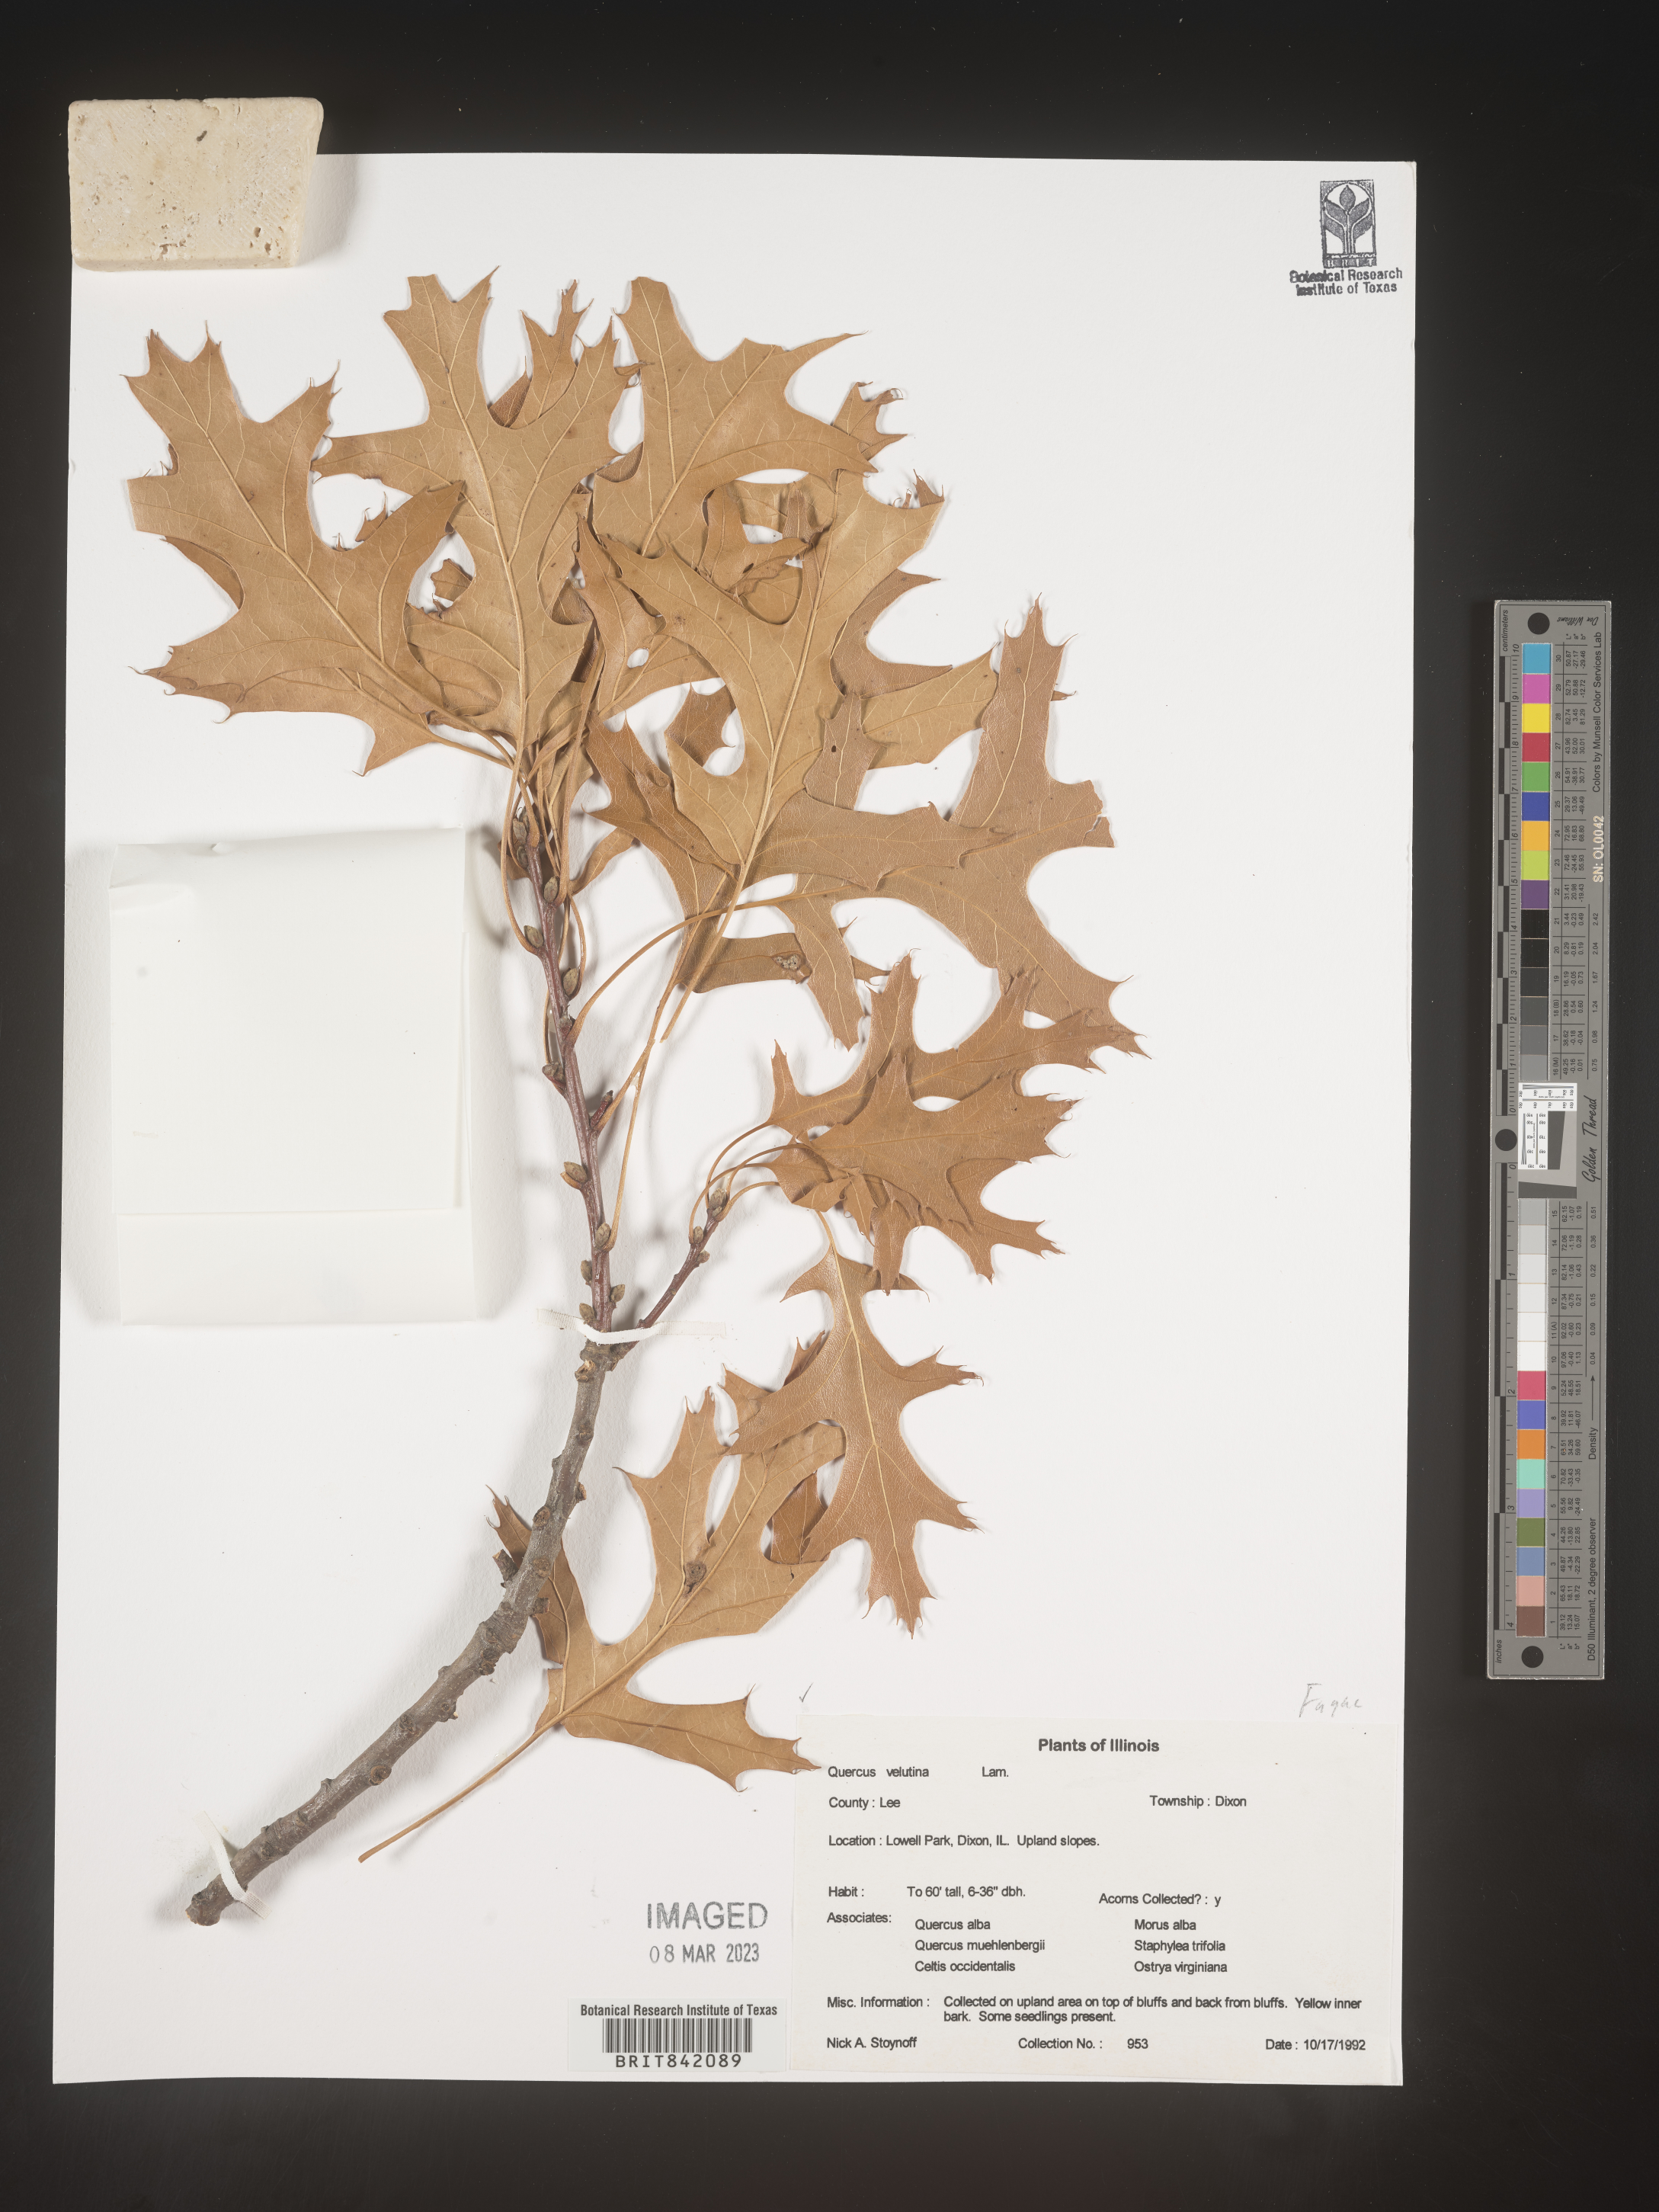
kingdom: Plantae
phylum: Tracheophyta
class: Magnoliopsida
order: Fagales
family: Fagaceae
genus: Quercus
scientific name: Quercus velutina
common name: Black oak
